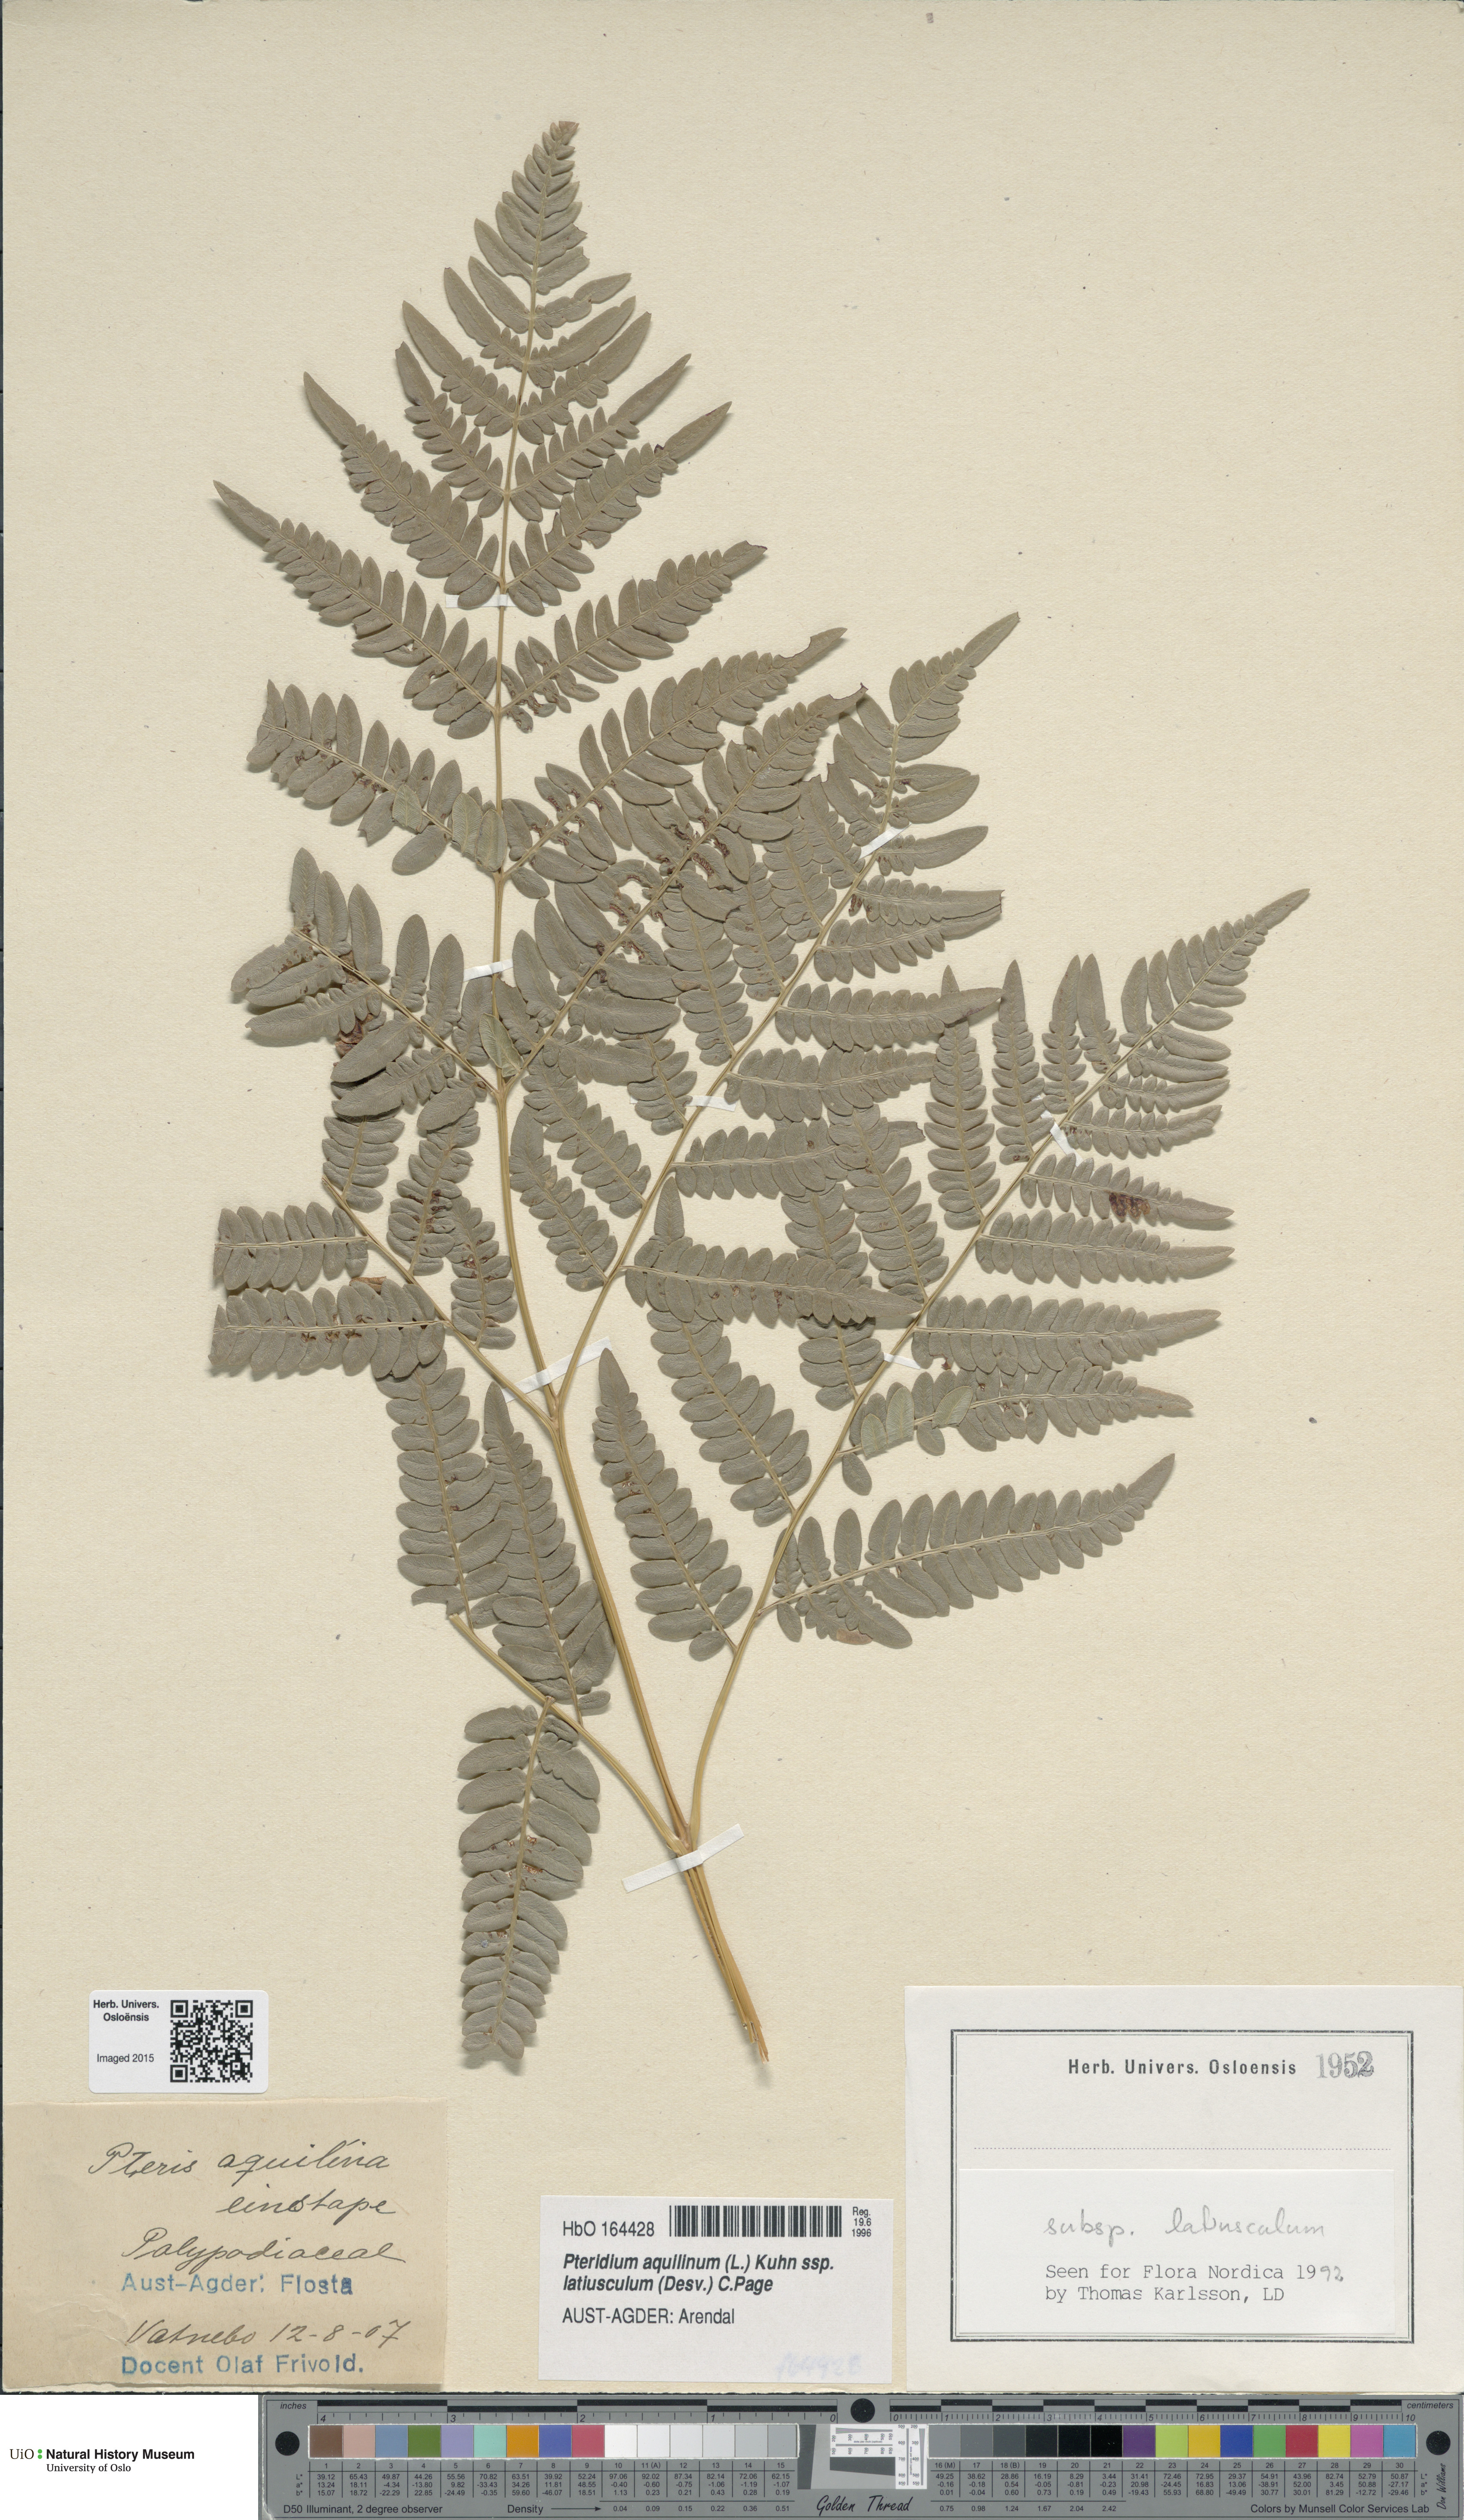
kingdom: Plantae
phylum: Tracheophyta
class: Polypodiopsida
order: Polypodiales
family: Dennstaedtiaceae
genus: Pteridium
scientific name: Pteridium aquilinum
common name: Bracken
